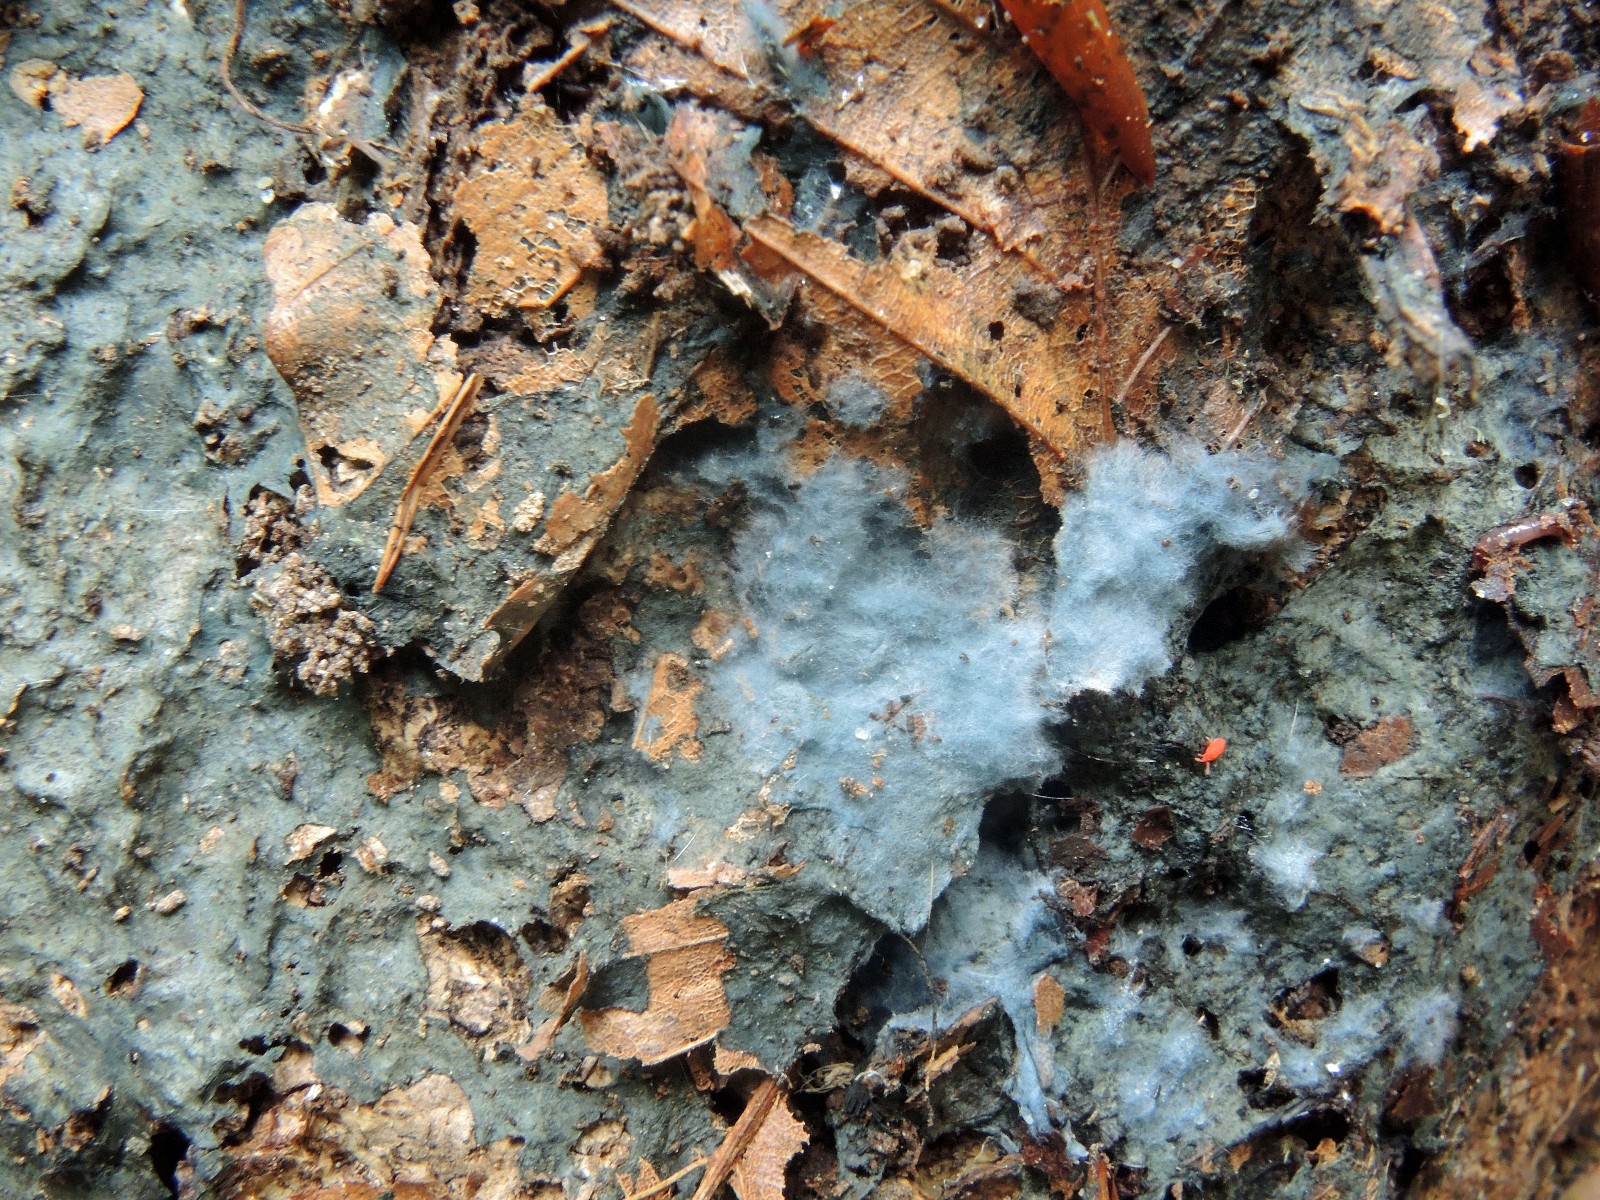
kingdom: Fungi
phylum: Basidiomycota
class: Agaricomycetes
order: Atheliales
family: Atheliaceae
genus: Byssocorticium
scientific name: Byssocorticium
